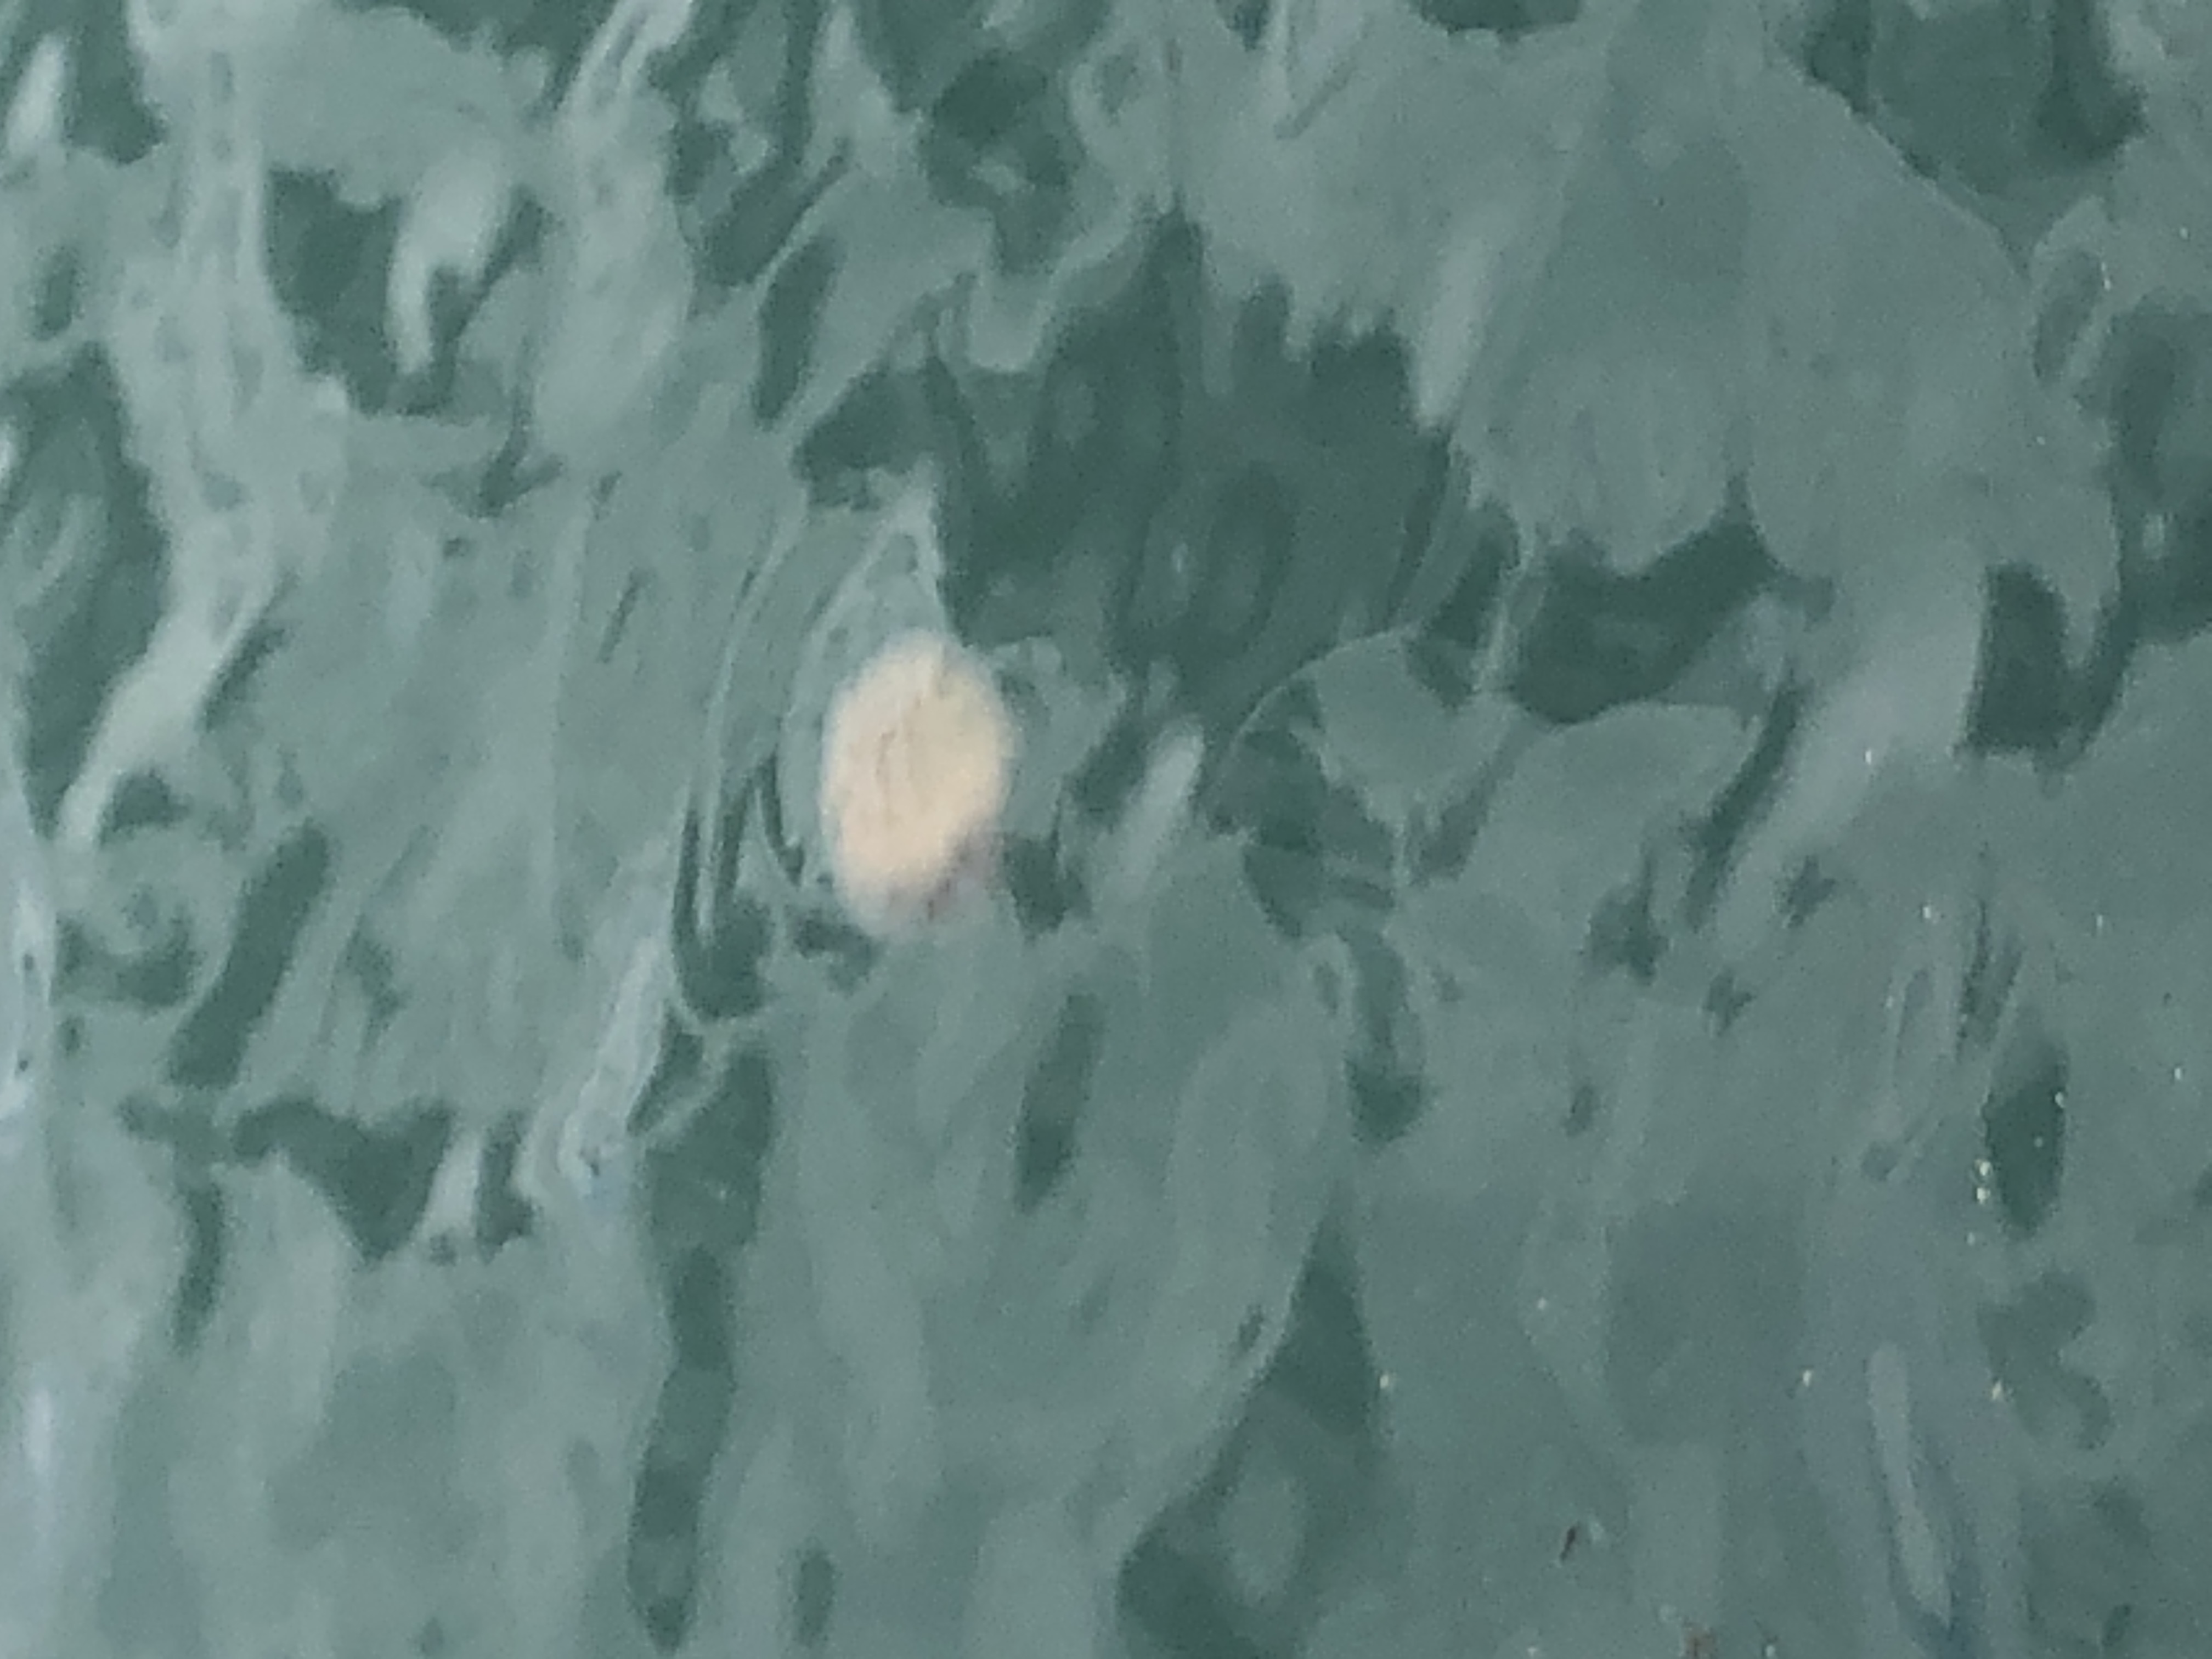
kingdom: Animalia
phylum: Cnidaria
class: Scyphozoa
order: Semaeostomeae
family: Cyaneidae
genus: Cyanea
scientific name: Cyanea nozakii
